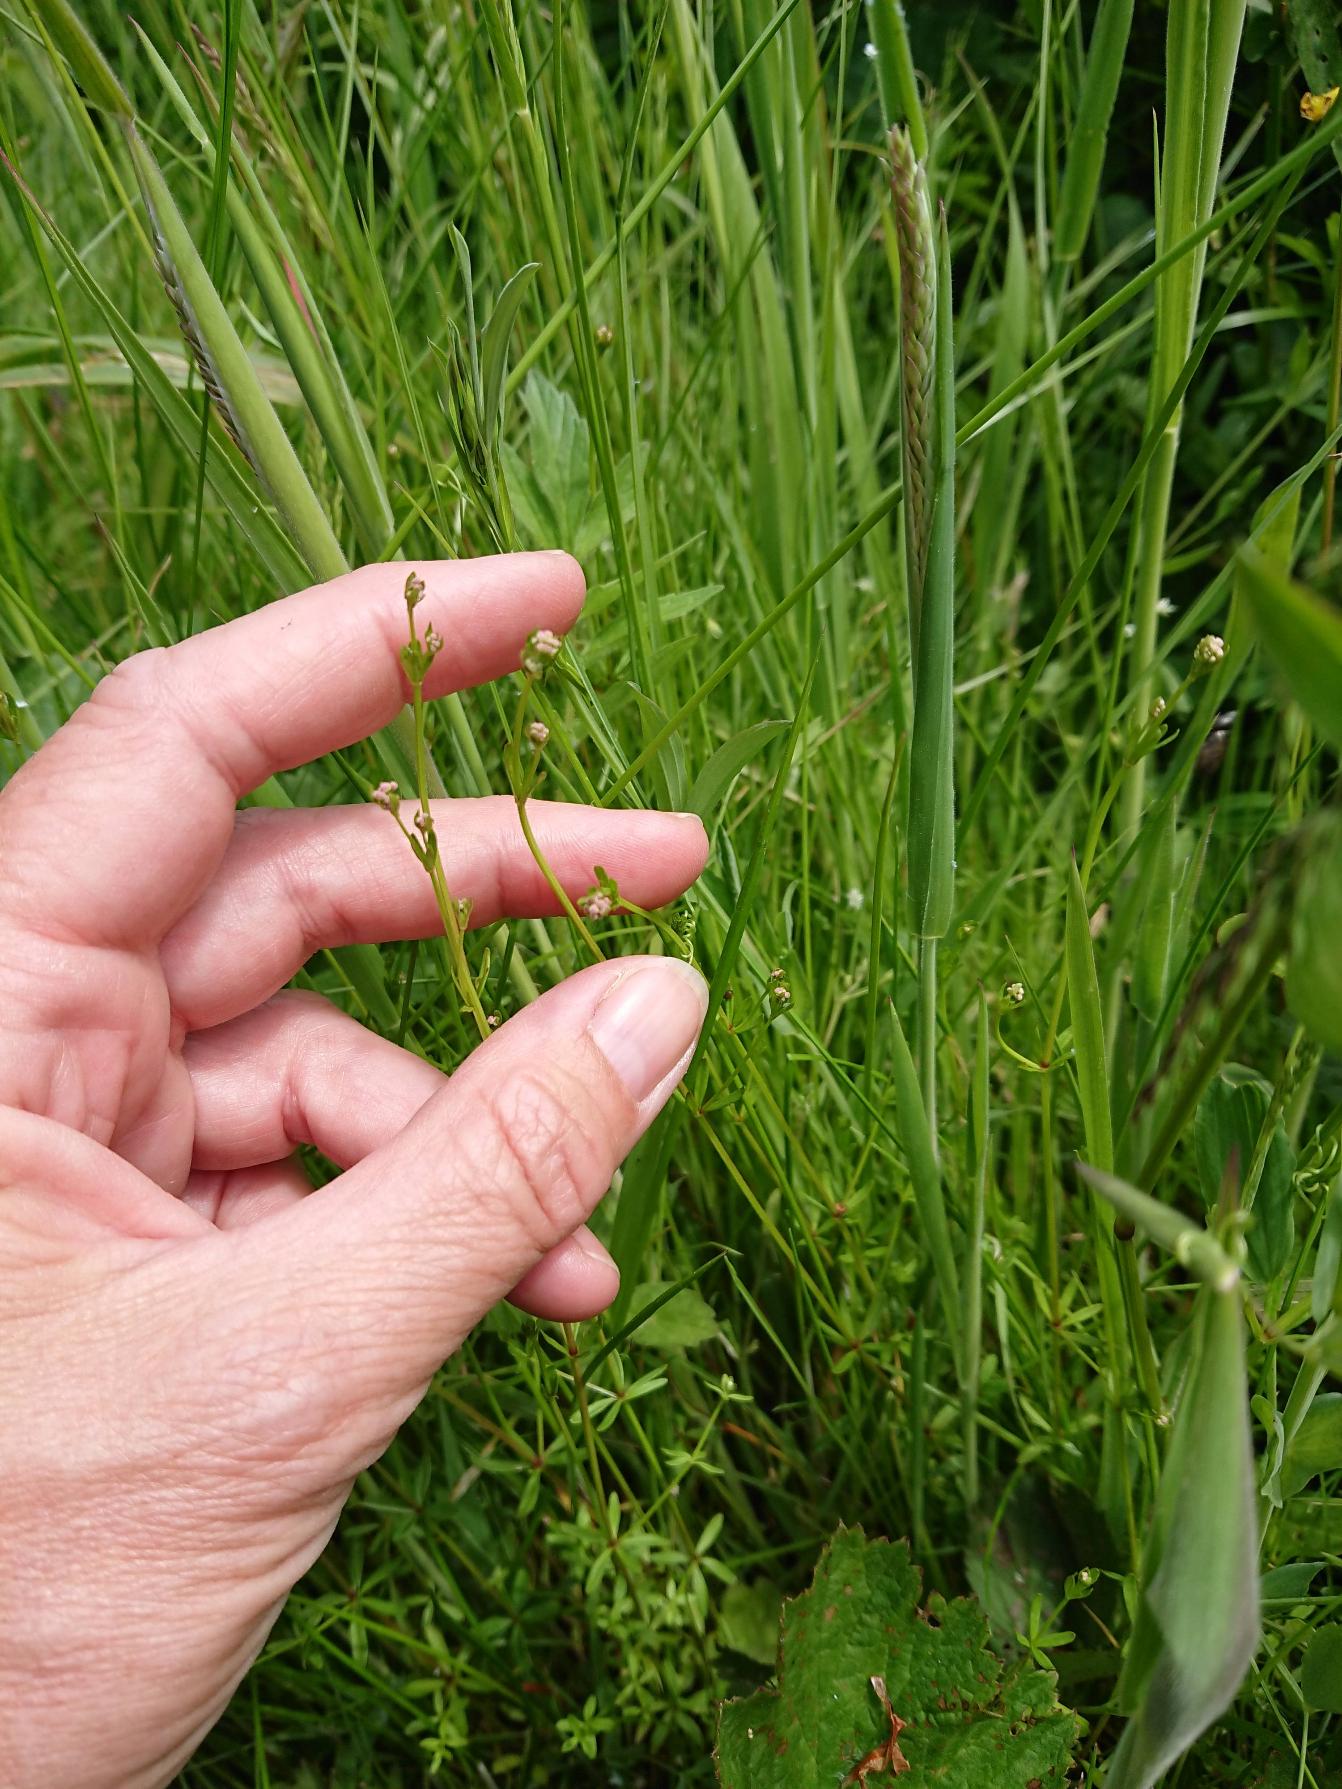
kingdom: Plantae
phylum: Tracheophyta
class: Magnoliopsida
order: Gentianales
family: Rubiaceae
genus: Galium
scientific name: Galium palustre
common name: Kær-snerre
